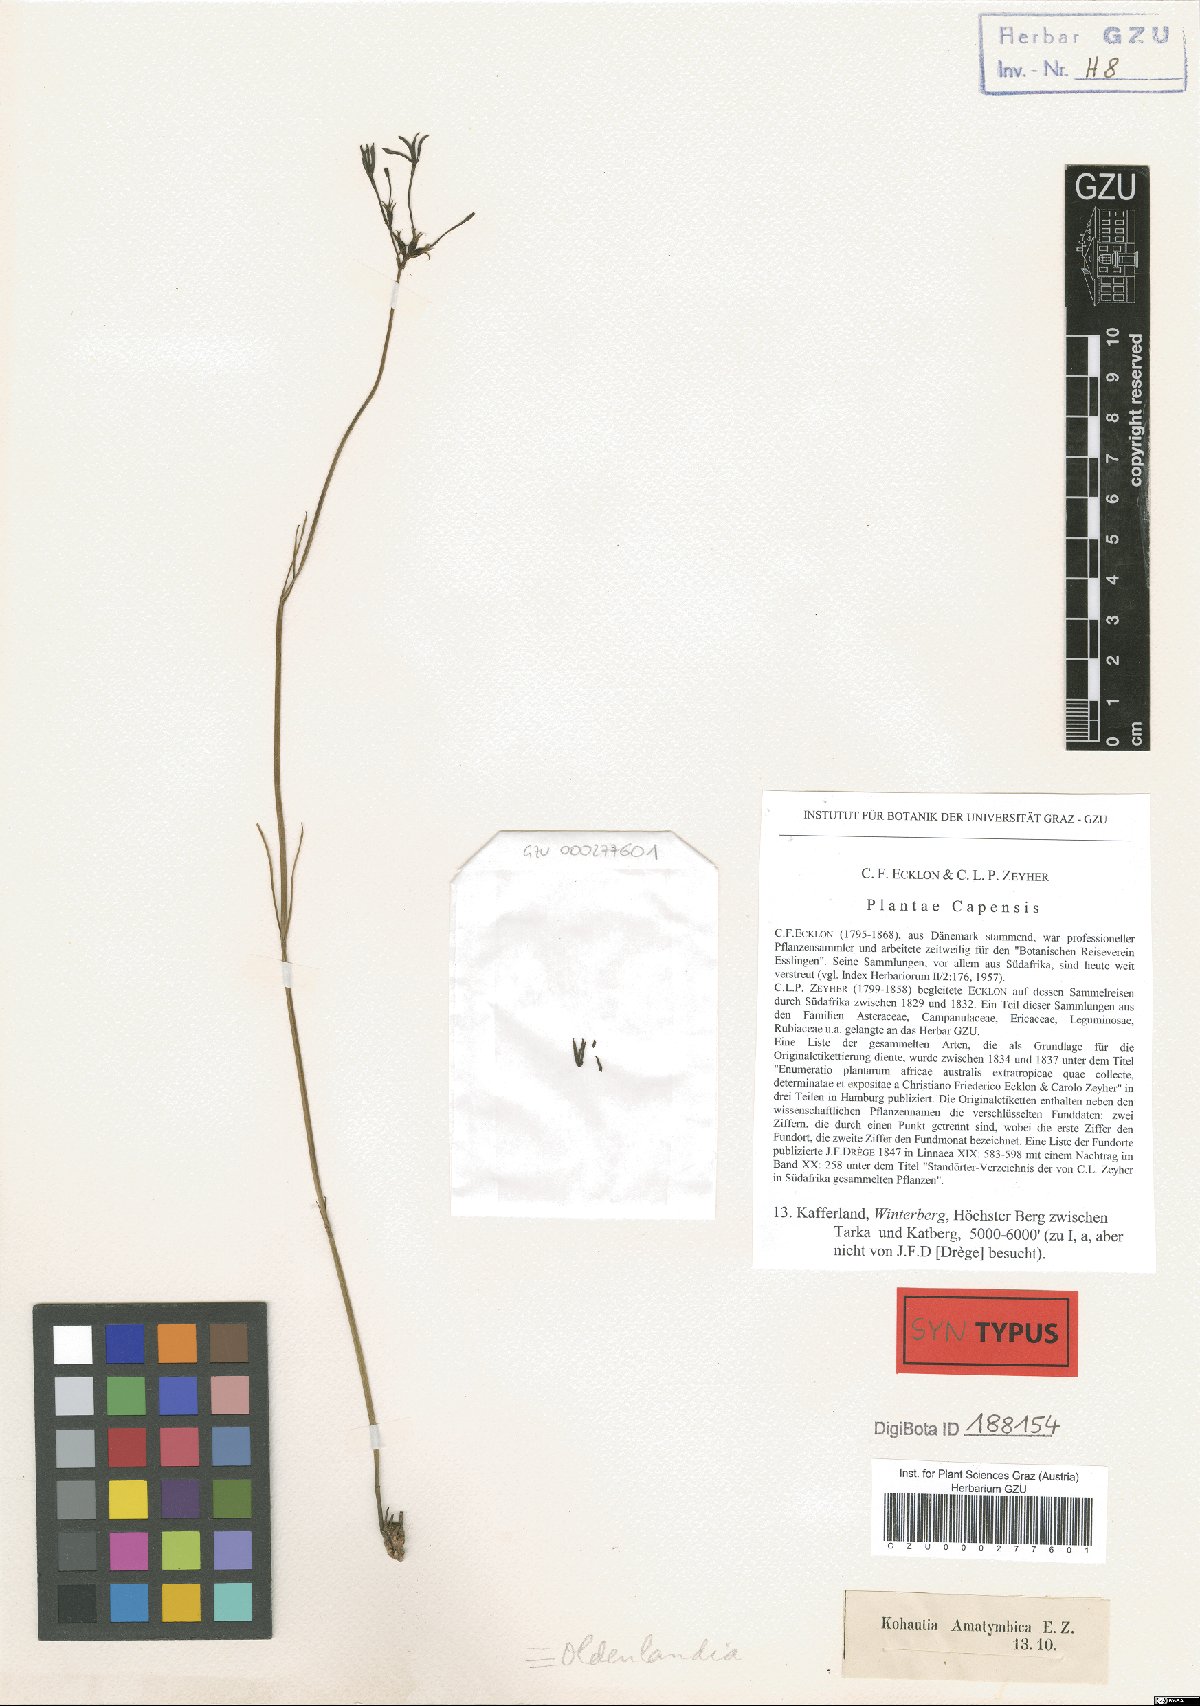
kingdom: Plantae
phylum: Tracheophyta
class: Magnoliopsida
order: Gentianales
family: Rubiaceae
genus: Kohautia
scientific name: Kohautia amatymbica
